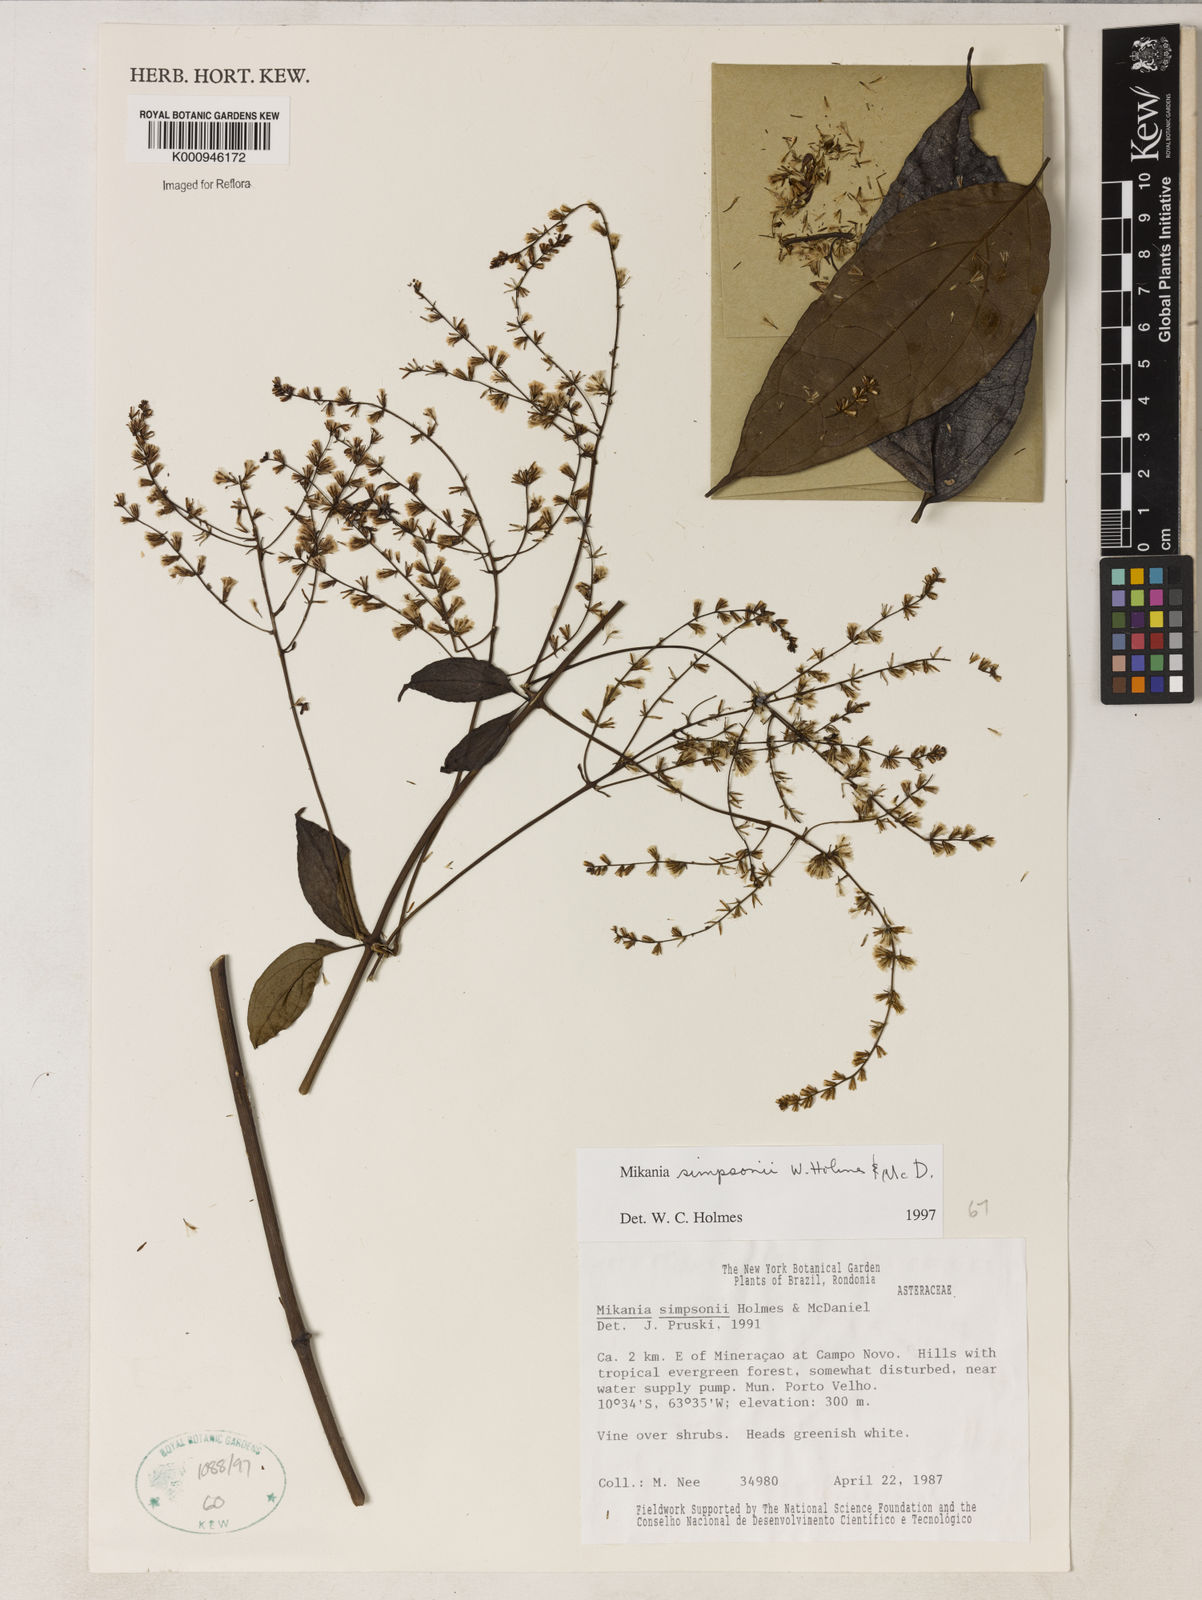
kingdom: Plantae
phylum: Tracheophyta
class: Magnoliopsida
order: Asterales
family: Asteraceae
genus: Mikania
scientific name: Mikania simpsonii
